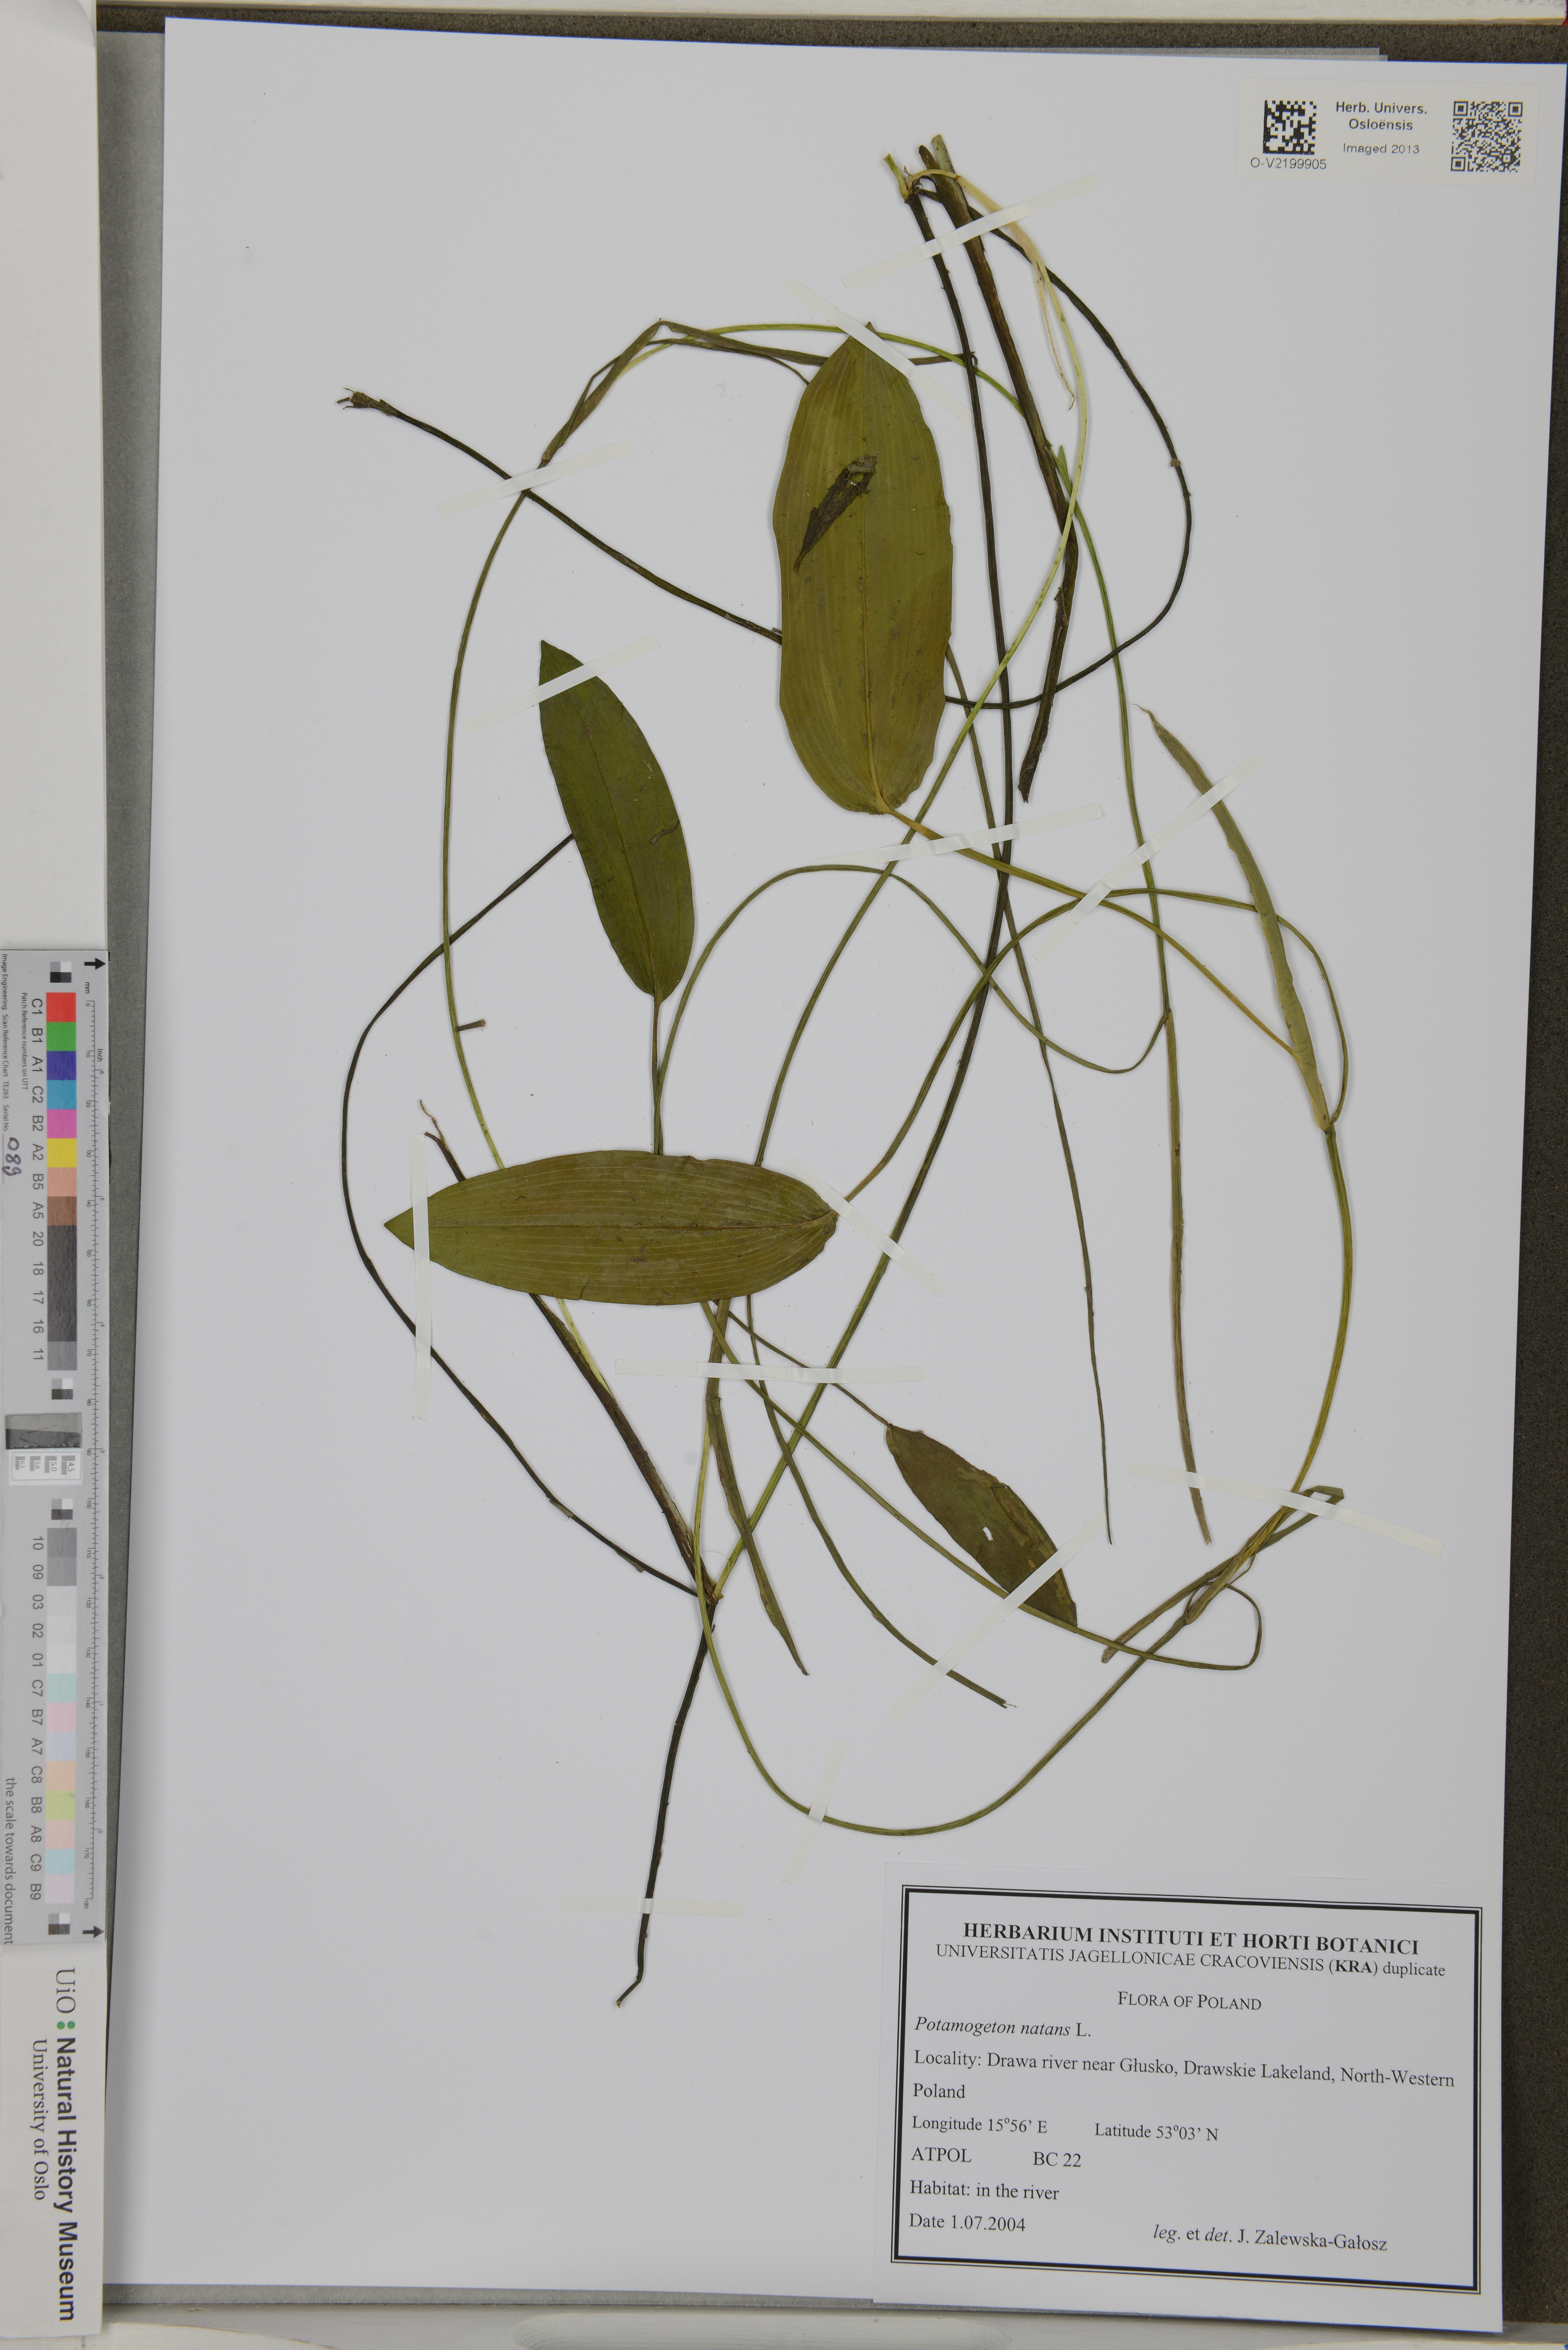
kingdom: Plantae
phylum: Tracheophyta
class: Liliopsida
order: Alismatales
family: Potamogetonaceae
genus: Potamogeton
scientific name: Potamogeton natans
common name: Broad-leaved pondweed
